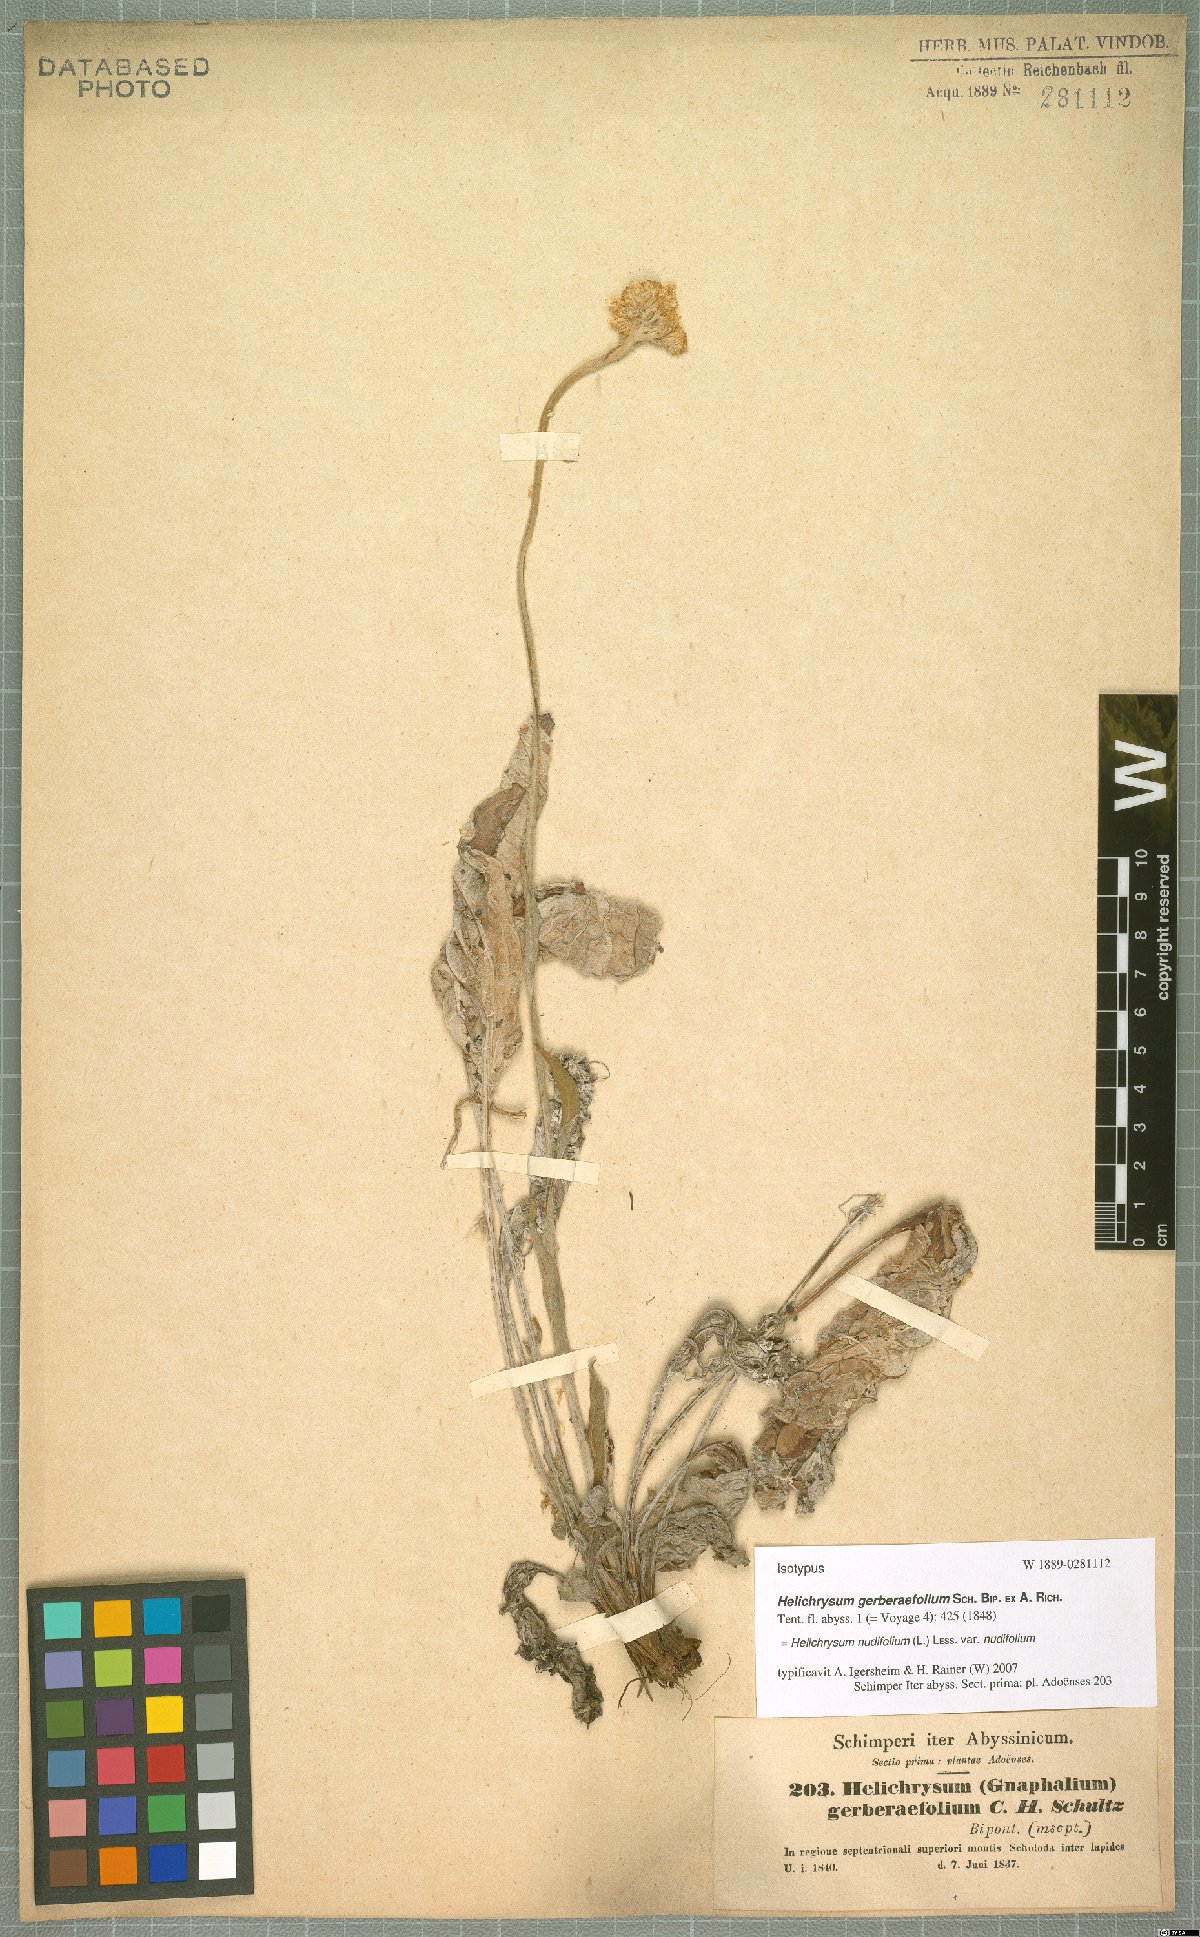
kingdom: Plantae
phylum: Tracheophyta
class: Magnoliopsida
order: Asterales
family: Asteraceae
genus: Helichrysum
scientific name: Helichrysum nudifolium
